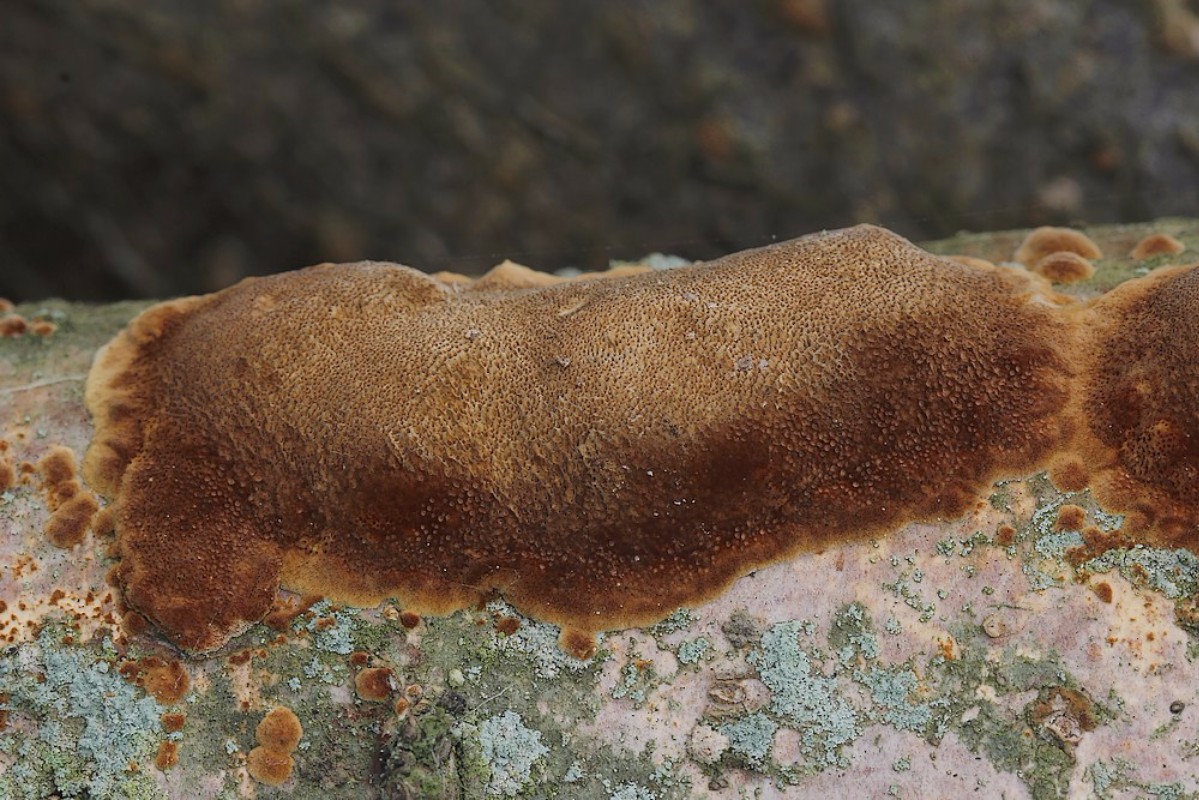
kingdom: Fungi
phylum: Basidiomycota
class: Agaricomycetes
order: Hymenochaetales
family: Hymenochaetaceae
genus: Fuscoporia
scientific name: Fuscoporia ferrea
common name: skorpe-ildporesvamp
